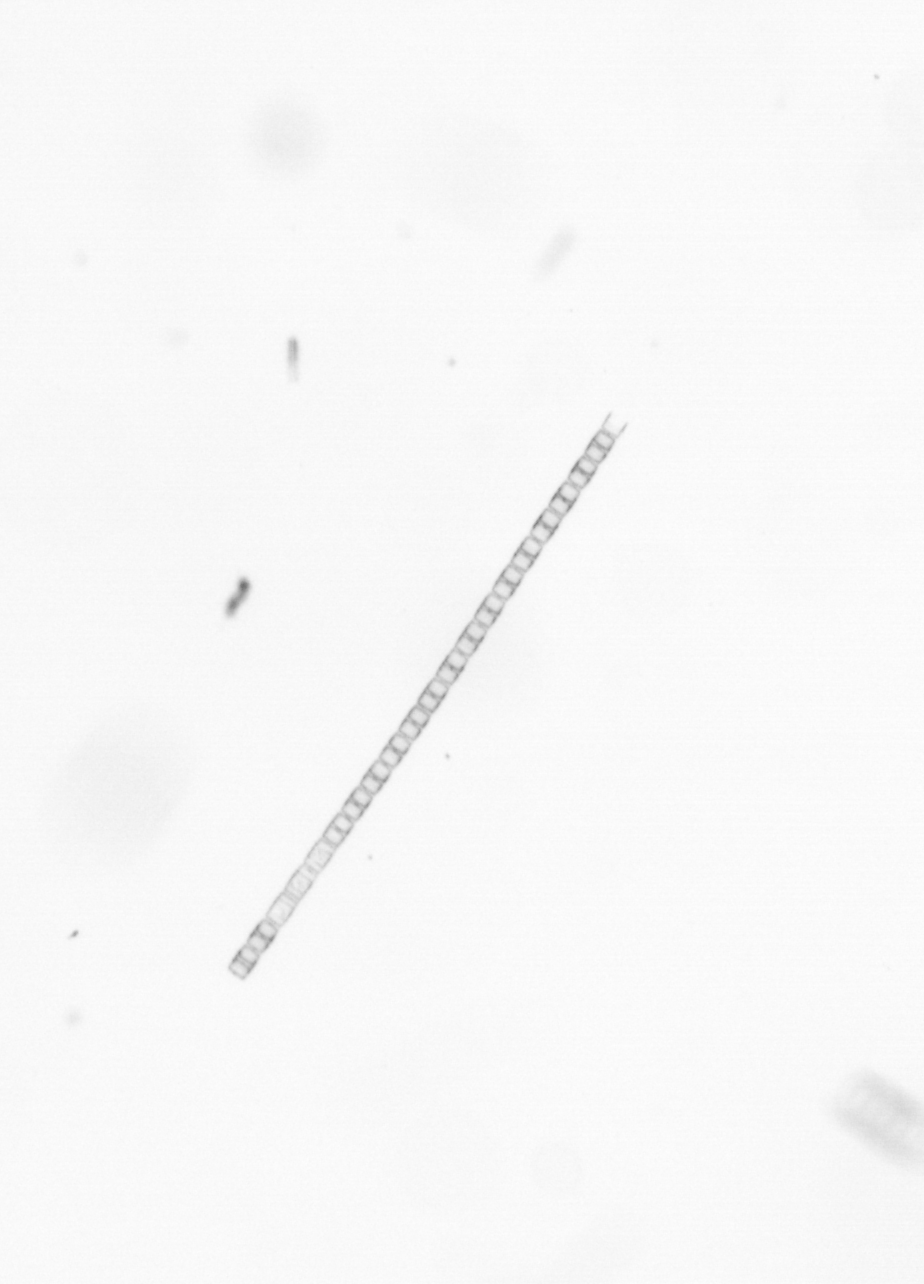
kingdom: Chromista
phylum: Ochrophyta
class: Bacillariophyceae
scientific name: Bacillariophyceae
